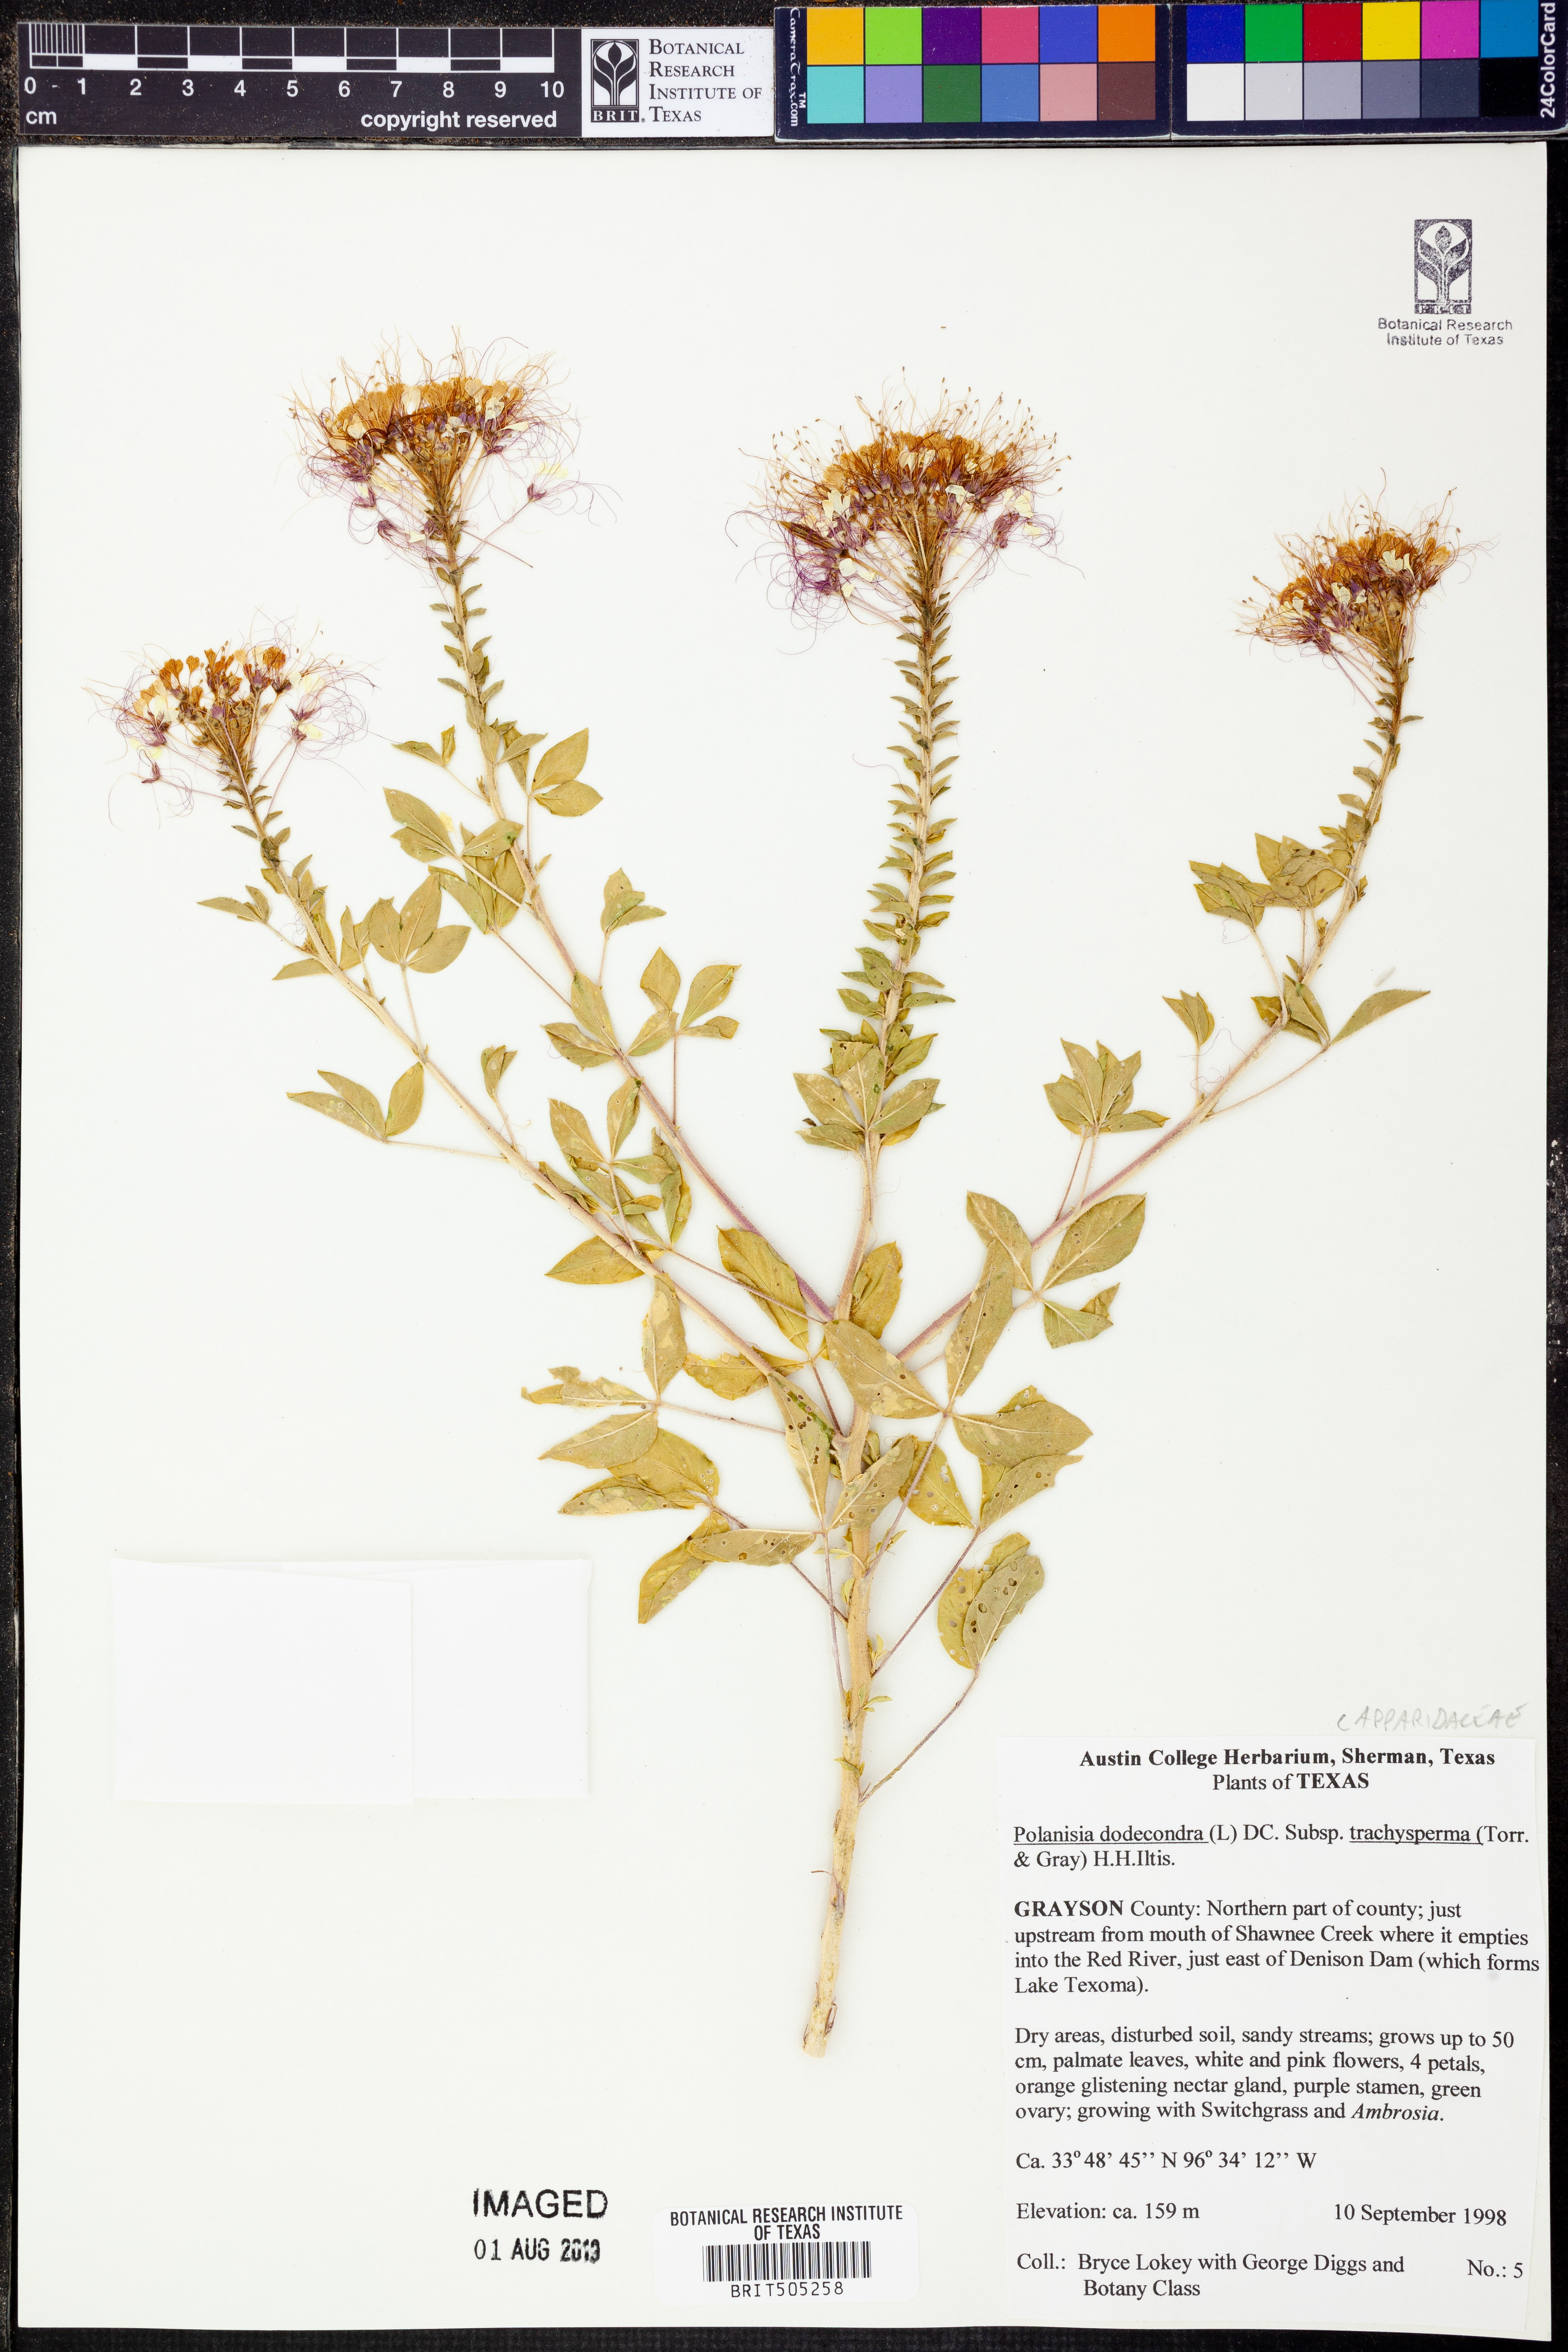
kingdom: Plantae
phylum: Tracheophyta
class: Magnoliopsida
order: Brassicales
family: Cleomaceae
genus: Polanisia
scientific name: Polanisia trachysperma
